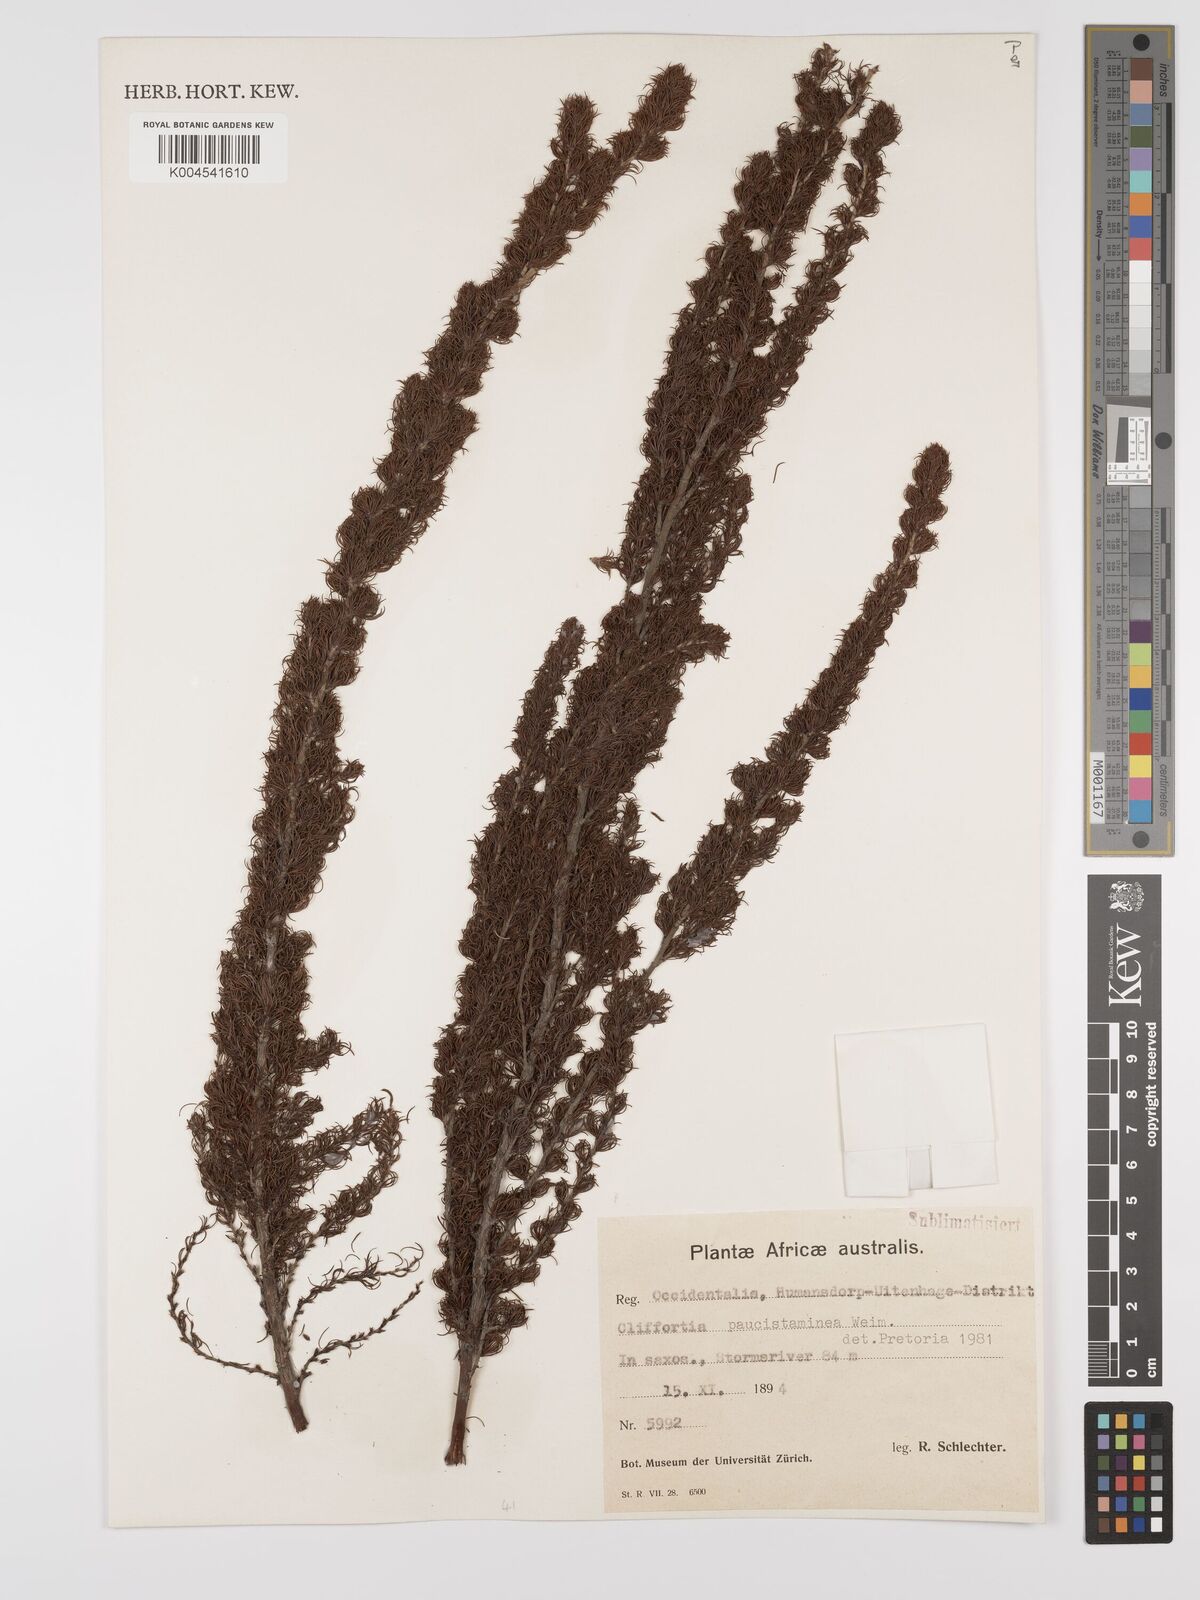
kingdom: Plantae
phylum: Tracheophyta
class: Magnoliopsida
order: Rosales
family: Rosaceae
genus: Cliffortia
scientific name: Cliffortia paucistaminea
